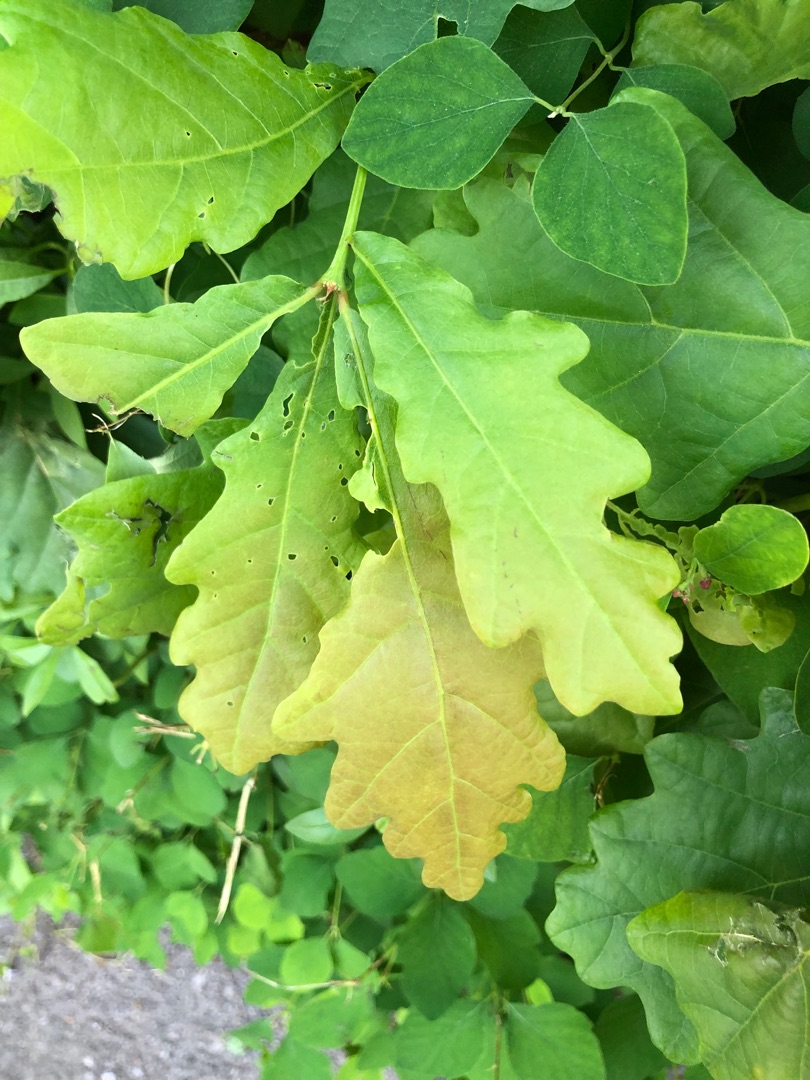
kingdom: Plantae
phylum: Tracheophyta
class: Magnoliopsida
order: Fagales
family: Fagaceae
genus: Quercus
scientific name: Quercus robur
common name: Stilk-eg/almindelig eg
